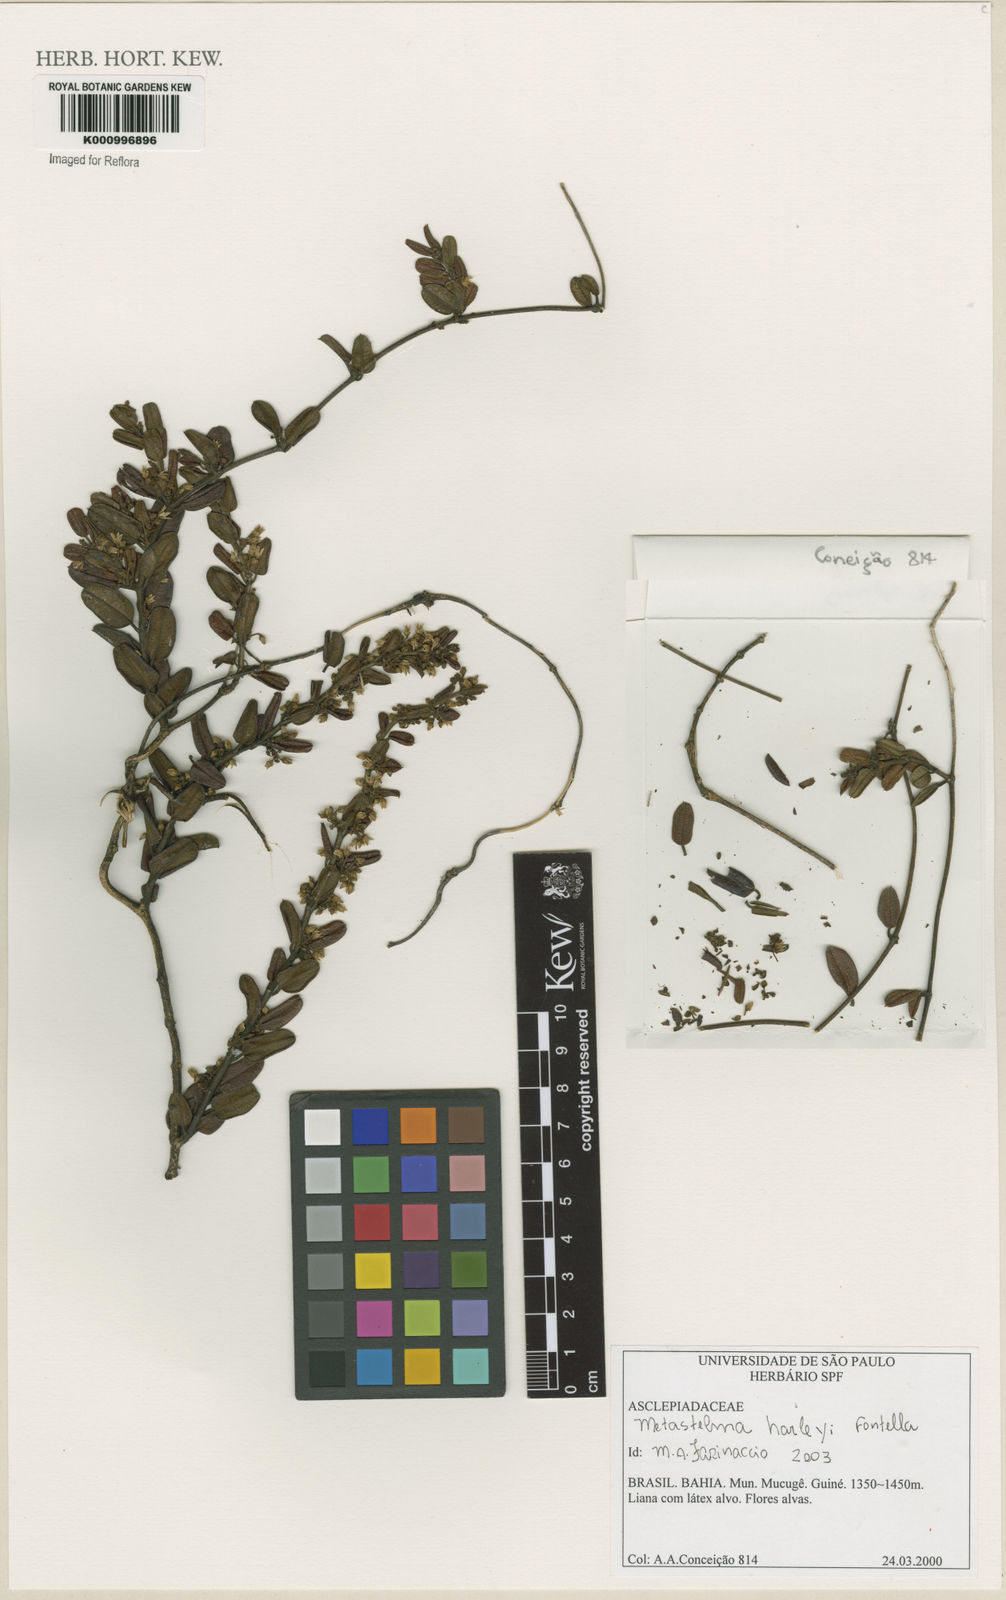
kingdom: Plantae
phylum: Tracheophyta
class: Magnoliopsida
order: Gentianales
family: Apocynaceae
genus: Metastelma
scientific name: Metastelma harleyi
